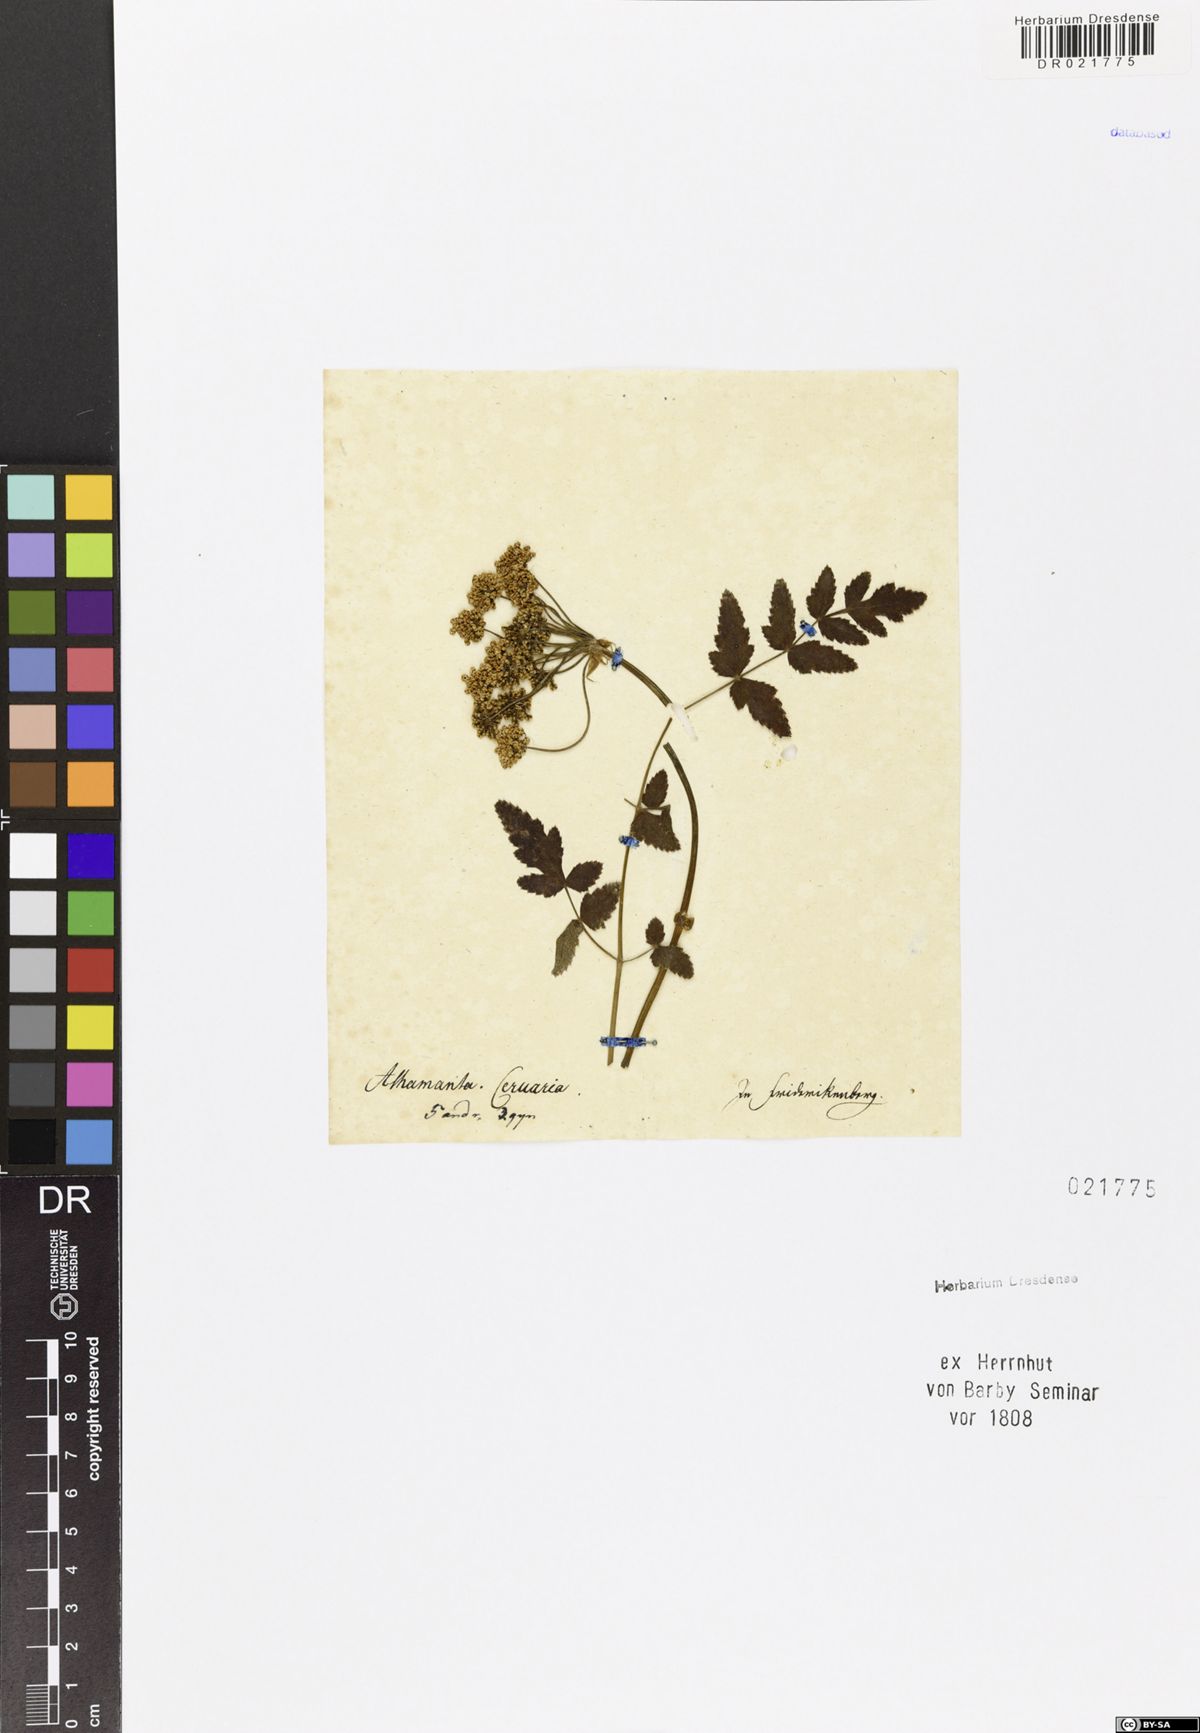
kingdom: Plantae
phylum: Tracheophyta
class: Magnoliopsida
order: Apiales
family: Apiaceae
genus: Cervaria
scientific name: Cervaria rivini
